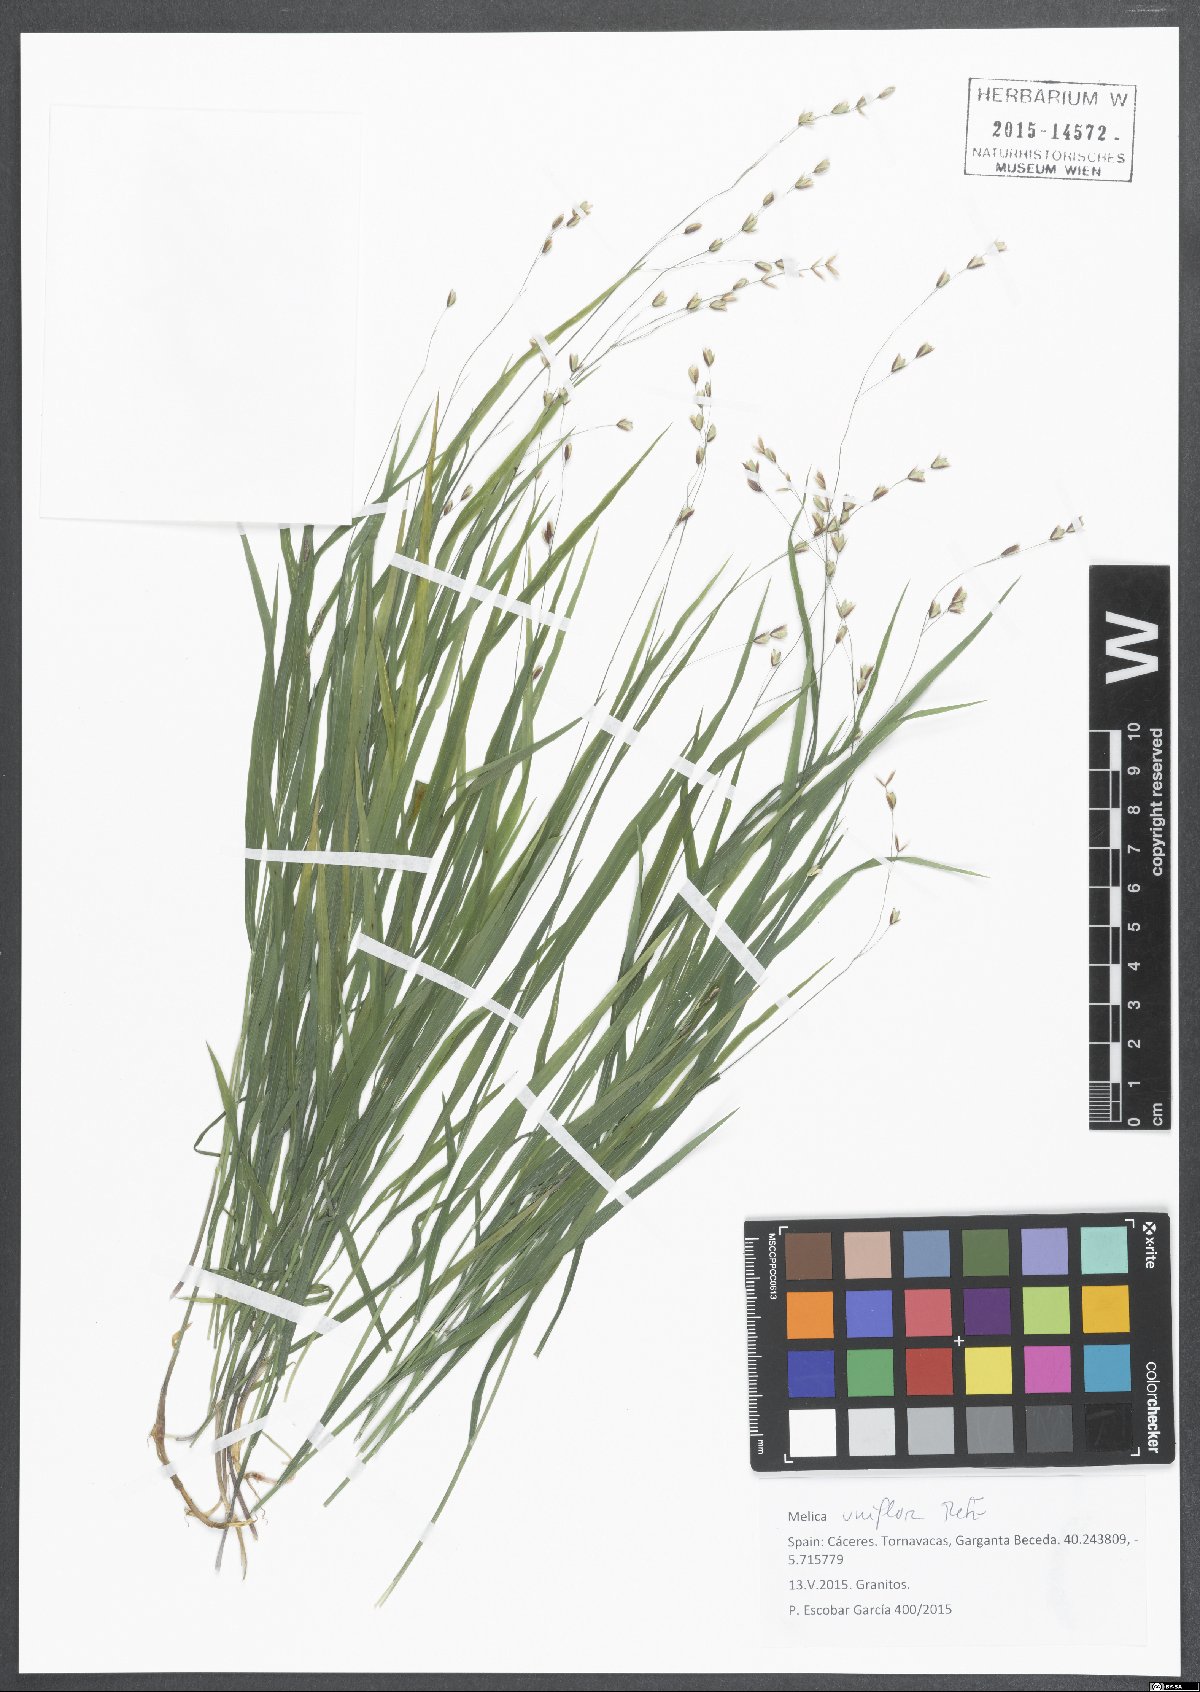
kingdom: Plantae
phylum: Tracheophyta
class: Liliopsida
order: Poales
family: Poaceae
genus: Melica
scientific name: Melica uniflora
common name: Wood melick
